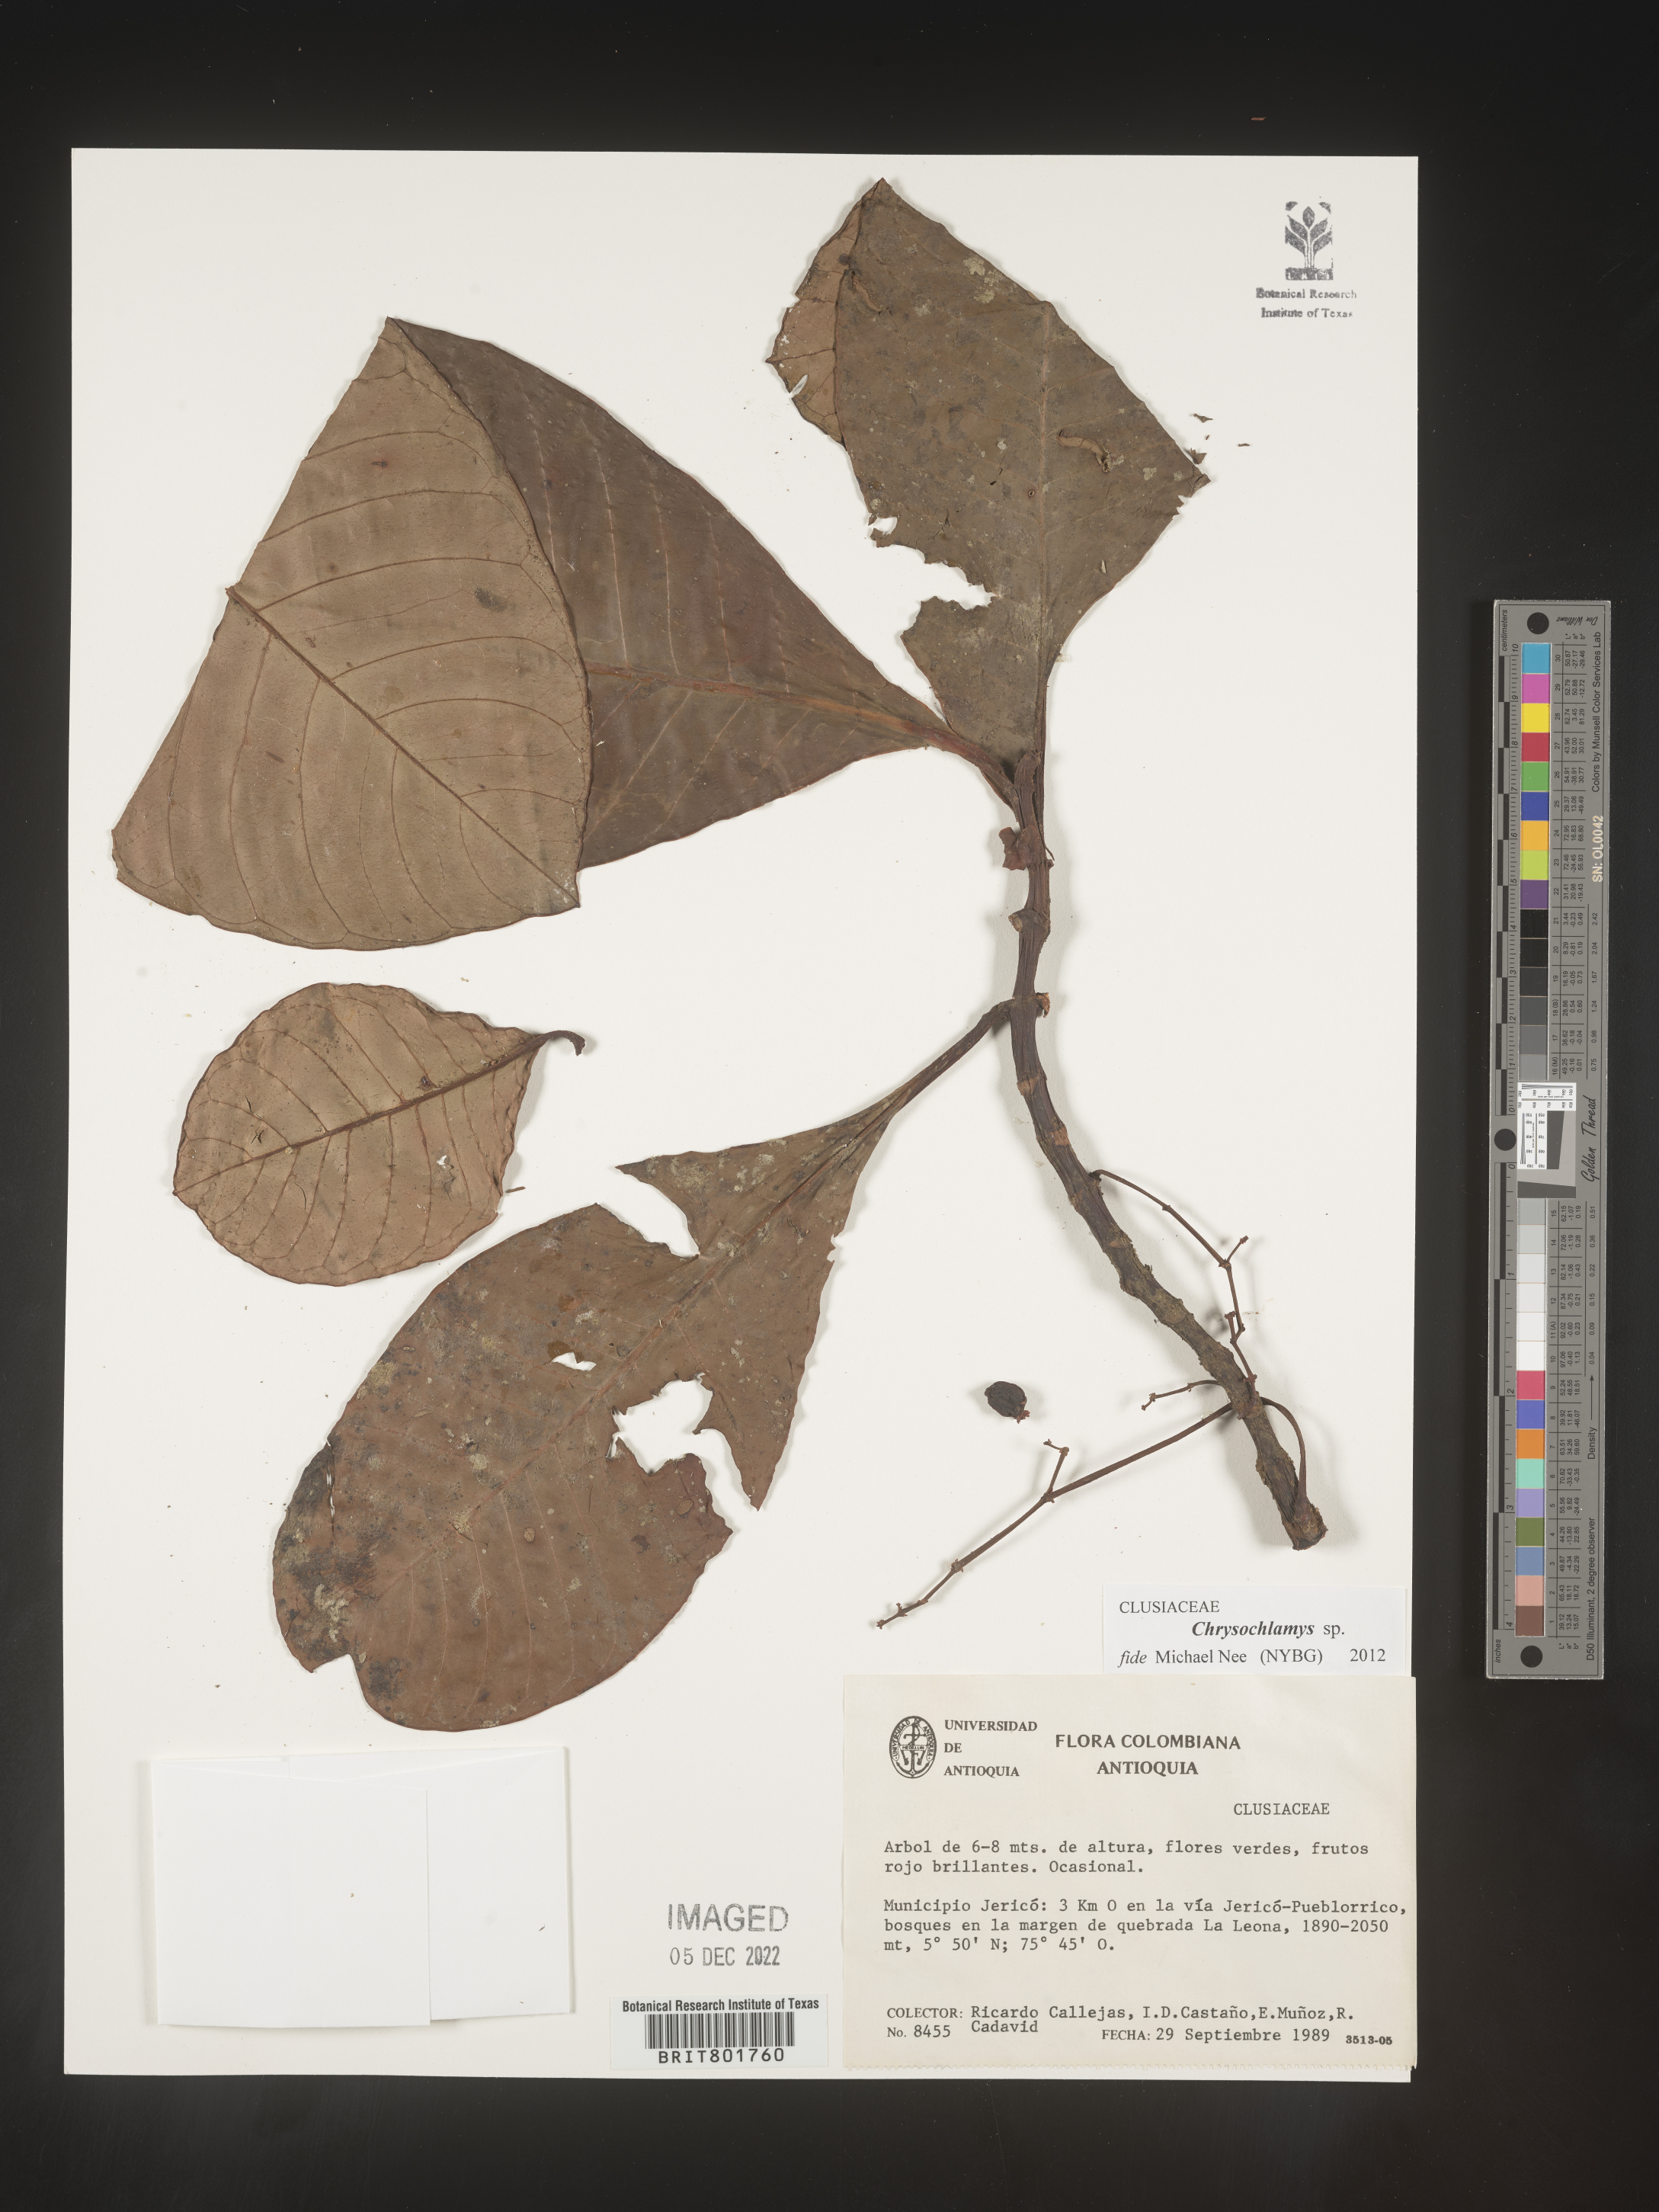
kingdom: Plantae
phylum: Tracheophyta
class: Magnoliopsida
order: Malpighiales
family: Clusiaceae
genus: Chrysochlamys
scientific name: Chrysochlamys
